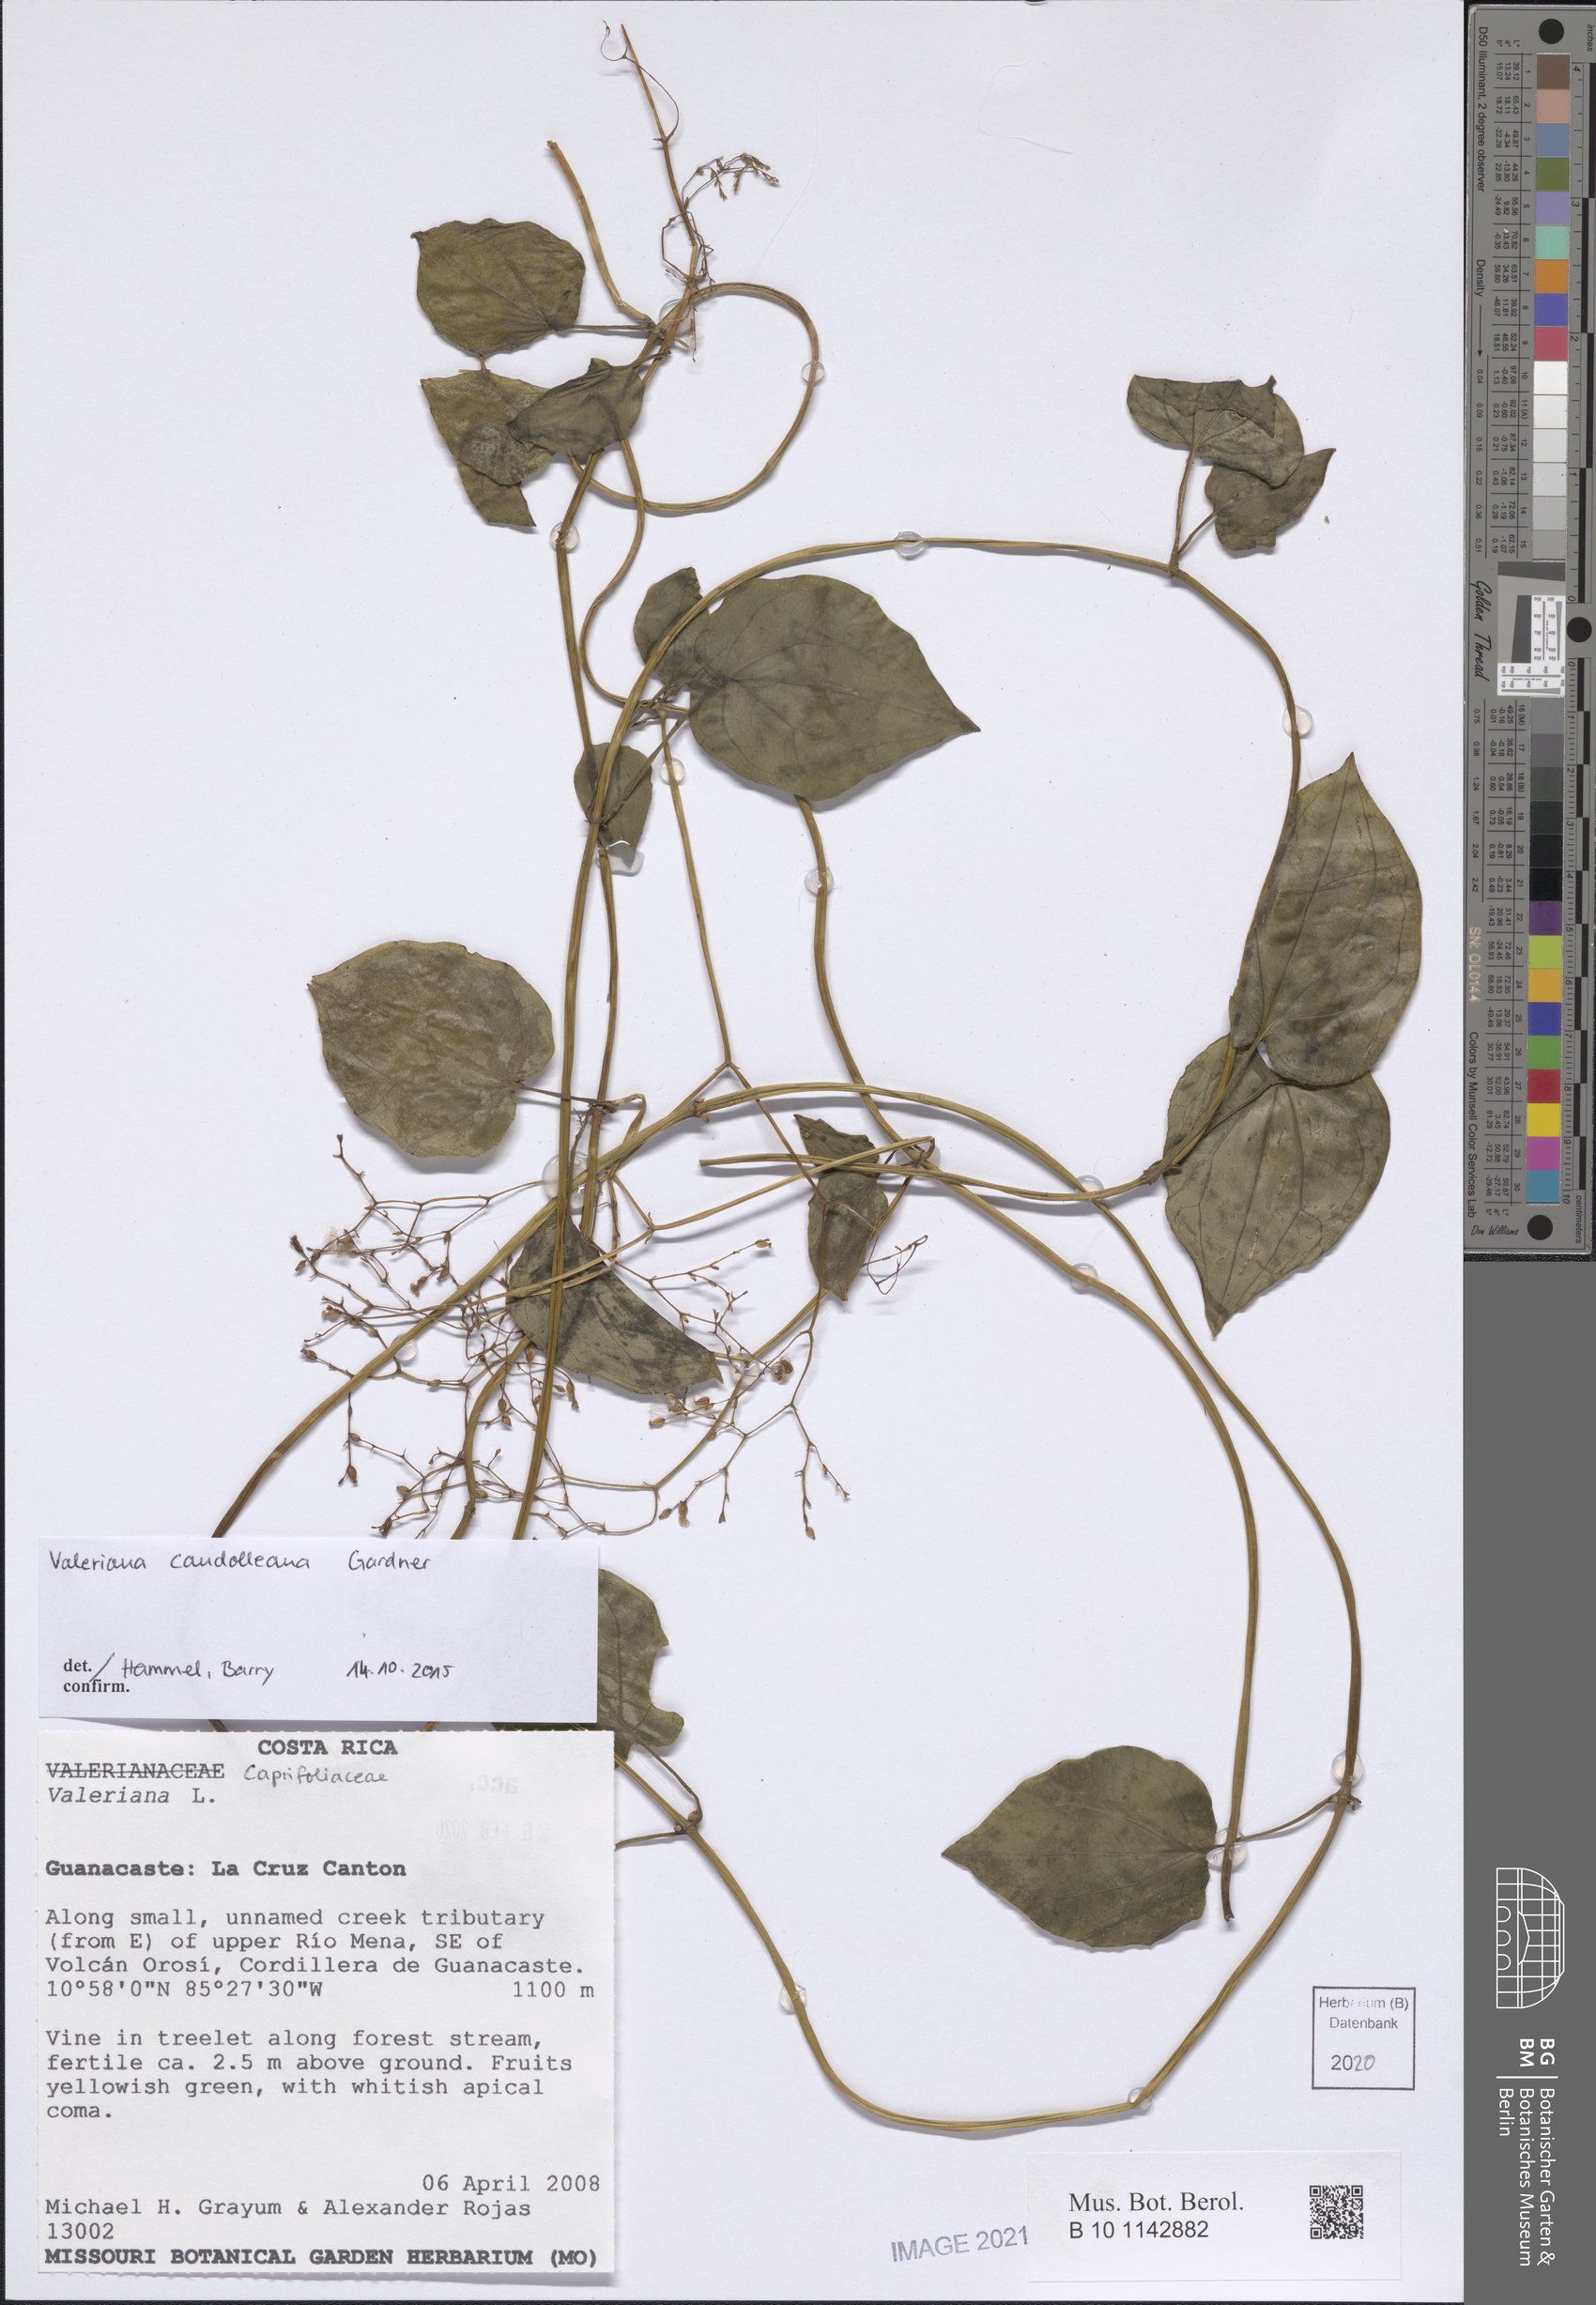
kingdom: Plantae
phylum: Tracheophyta
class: Magnoliopsida
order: Dipsacales
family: Caprifoliaceae
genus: Valeriana
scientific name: Valeriana candolleana
